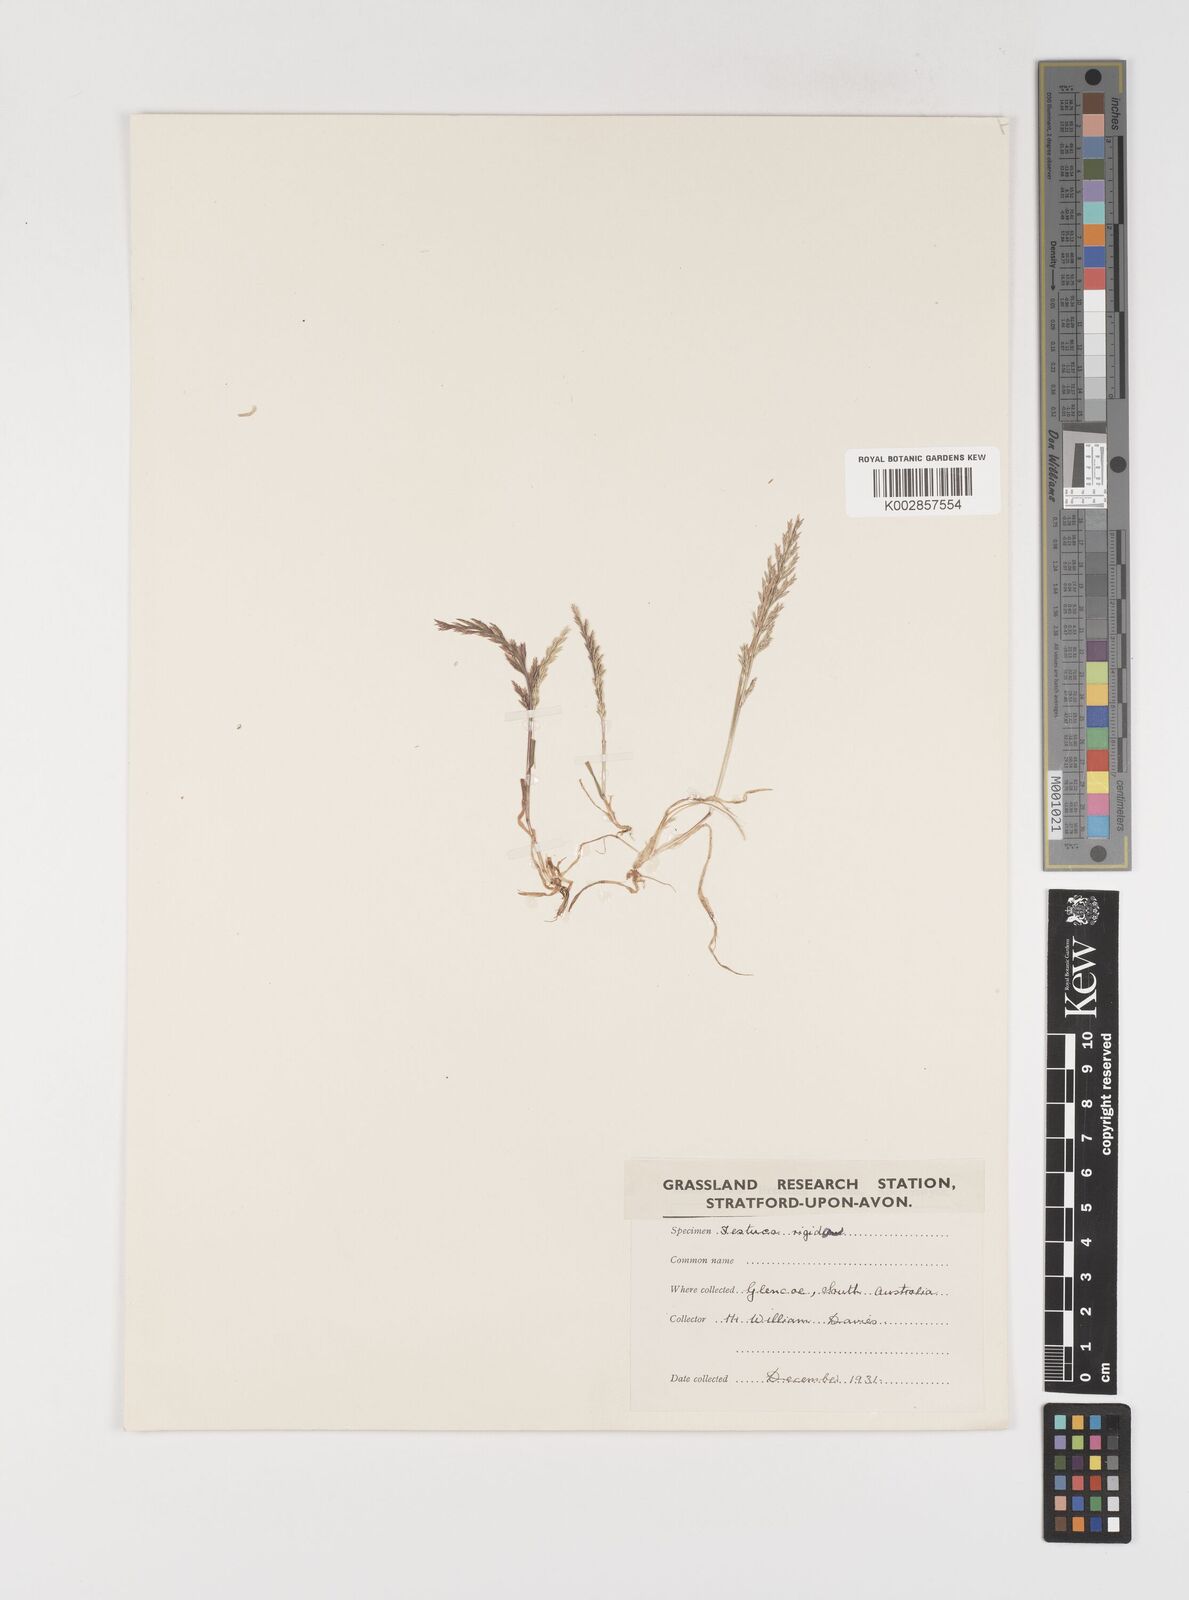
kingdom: Plantae
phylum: Tracheophyta
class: Liliopsida
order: Poales
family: Poaceae
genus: Puccinellia
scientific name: Puccinellia stricta
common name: Australian saltmarsh grass
